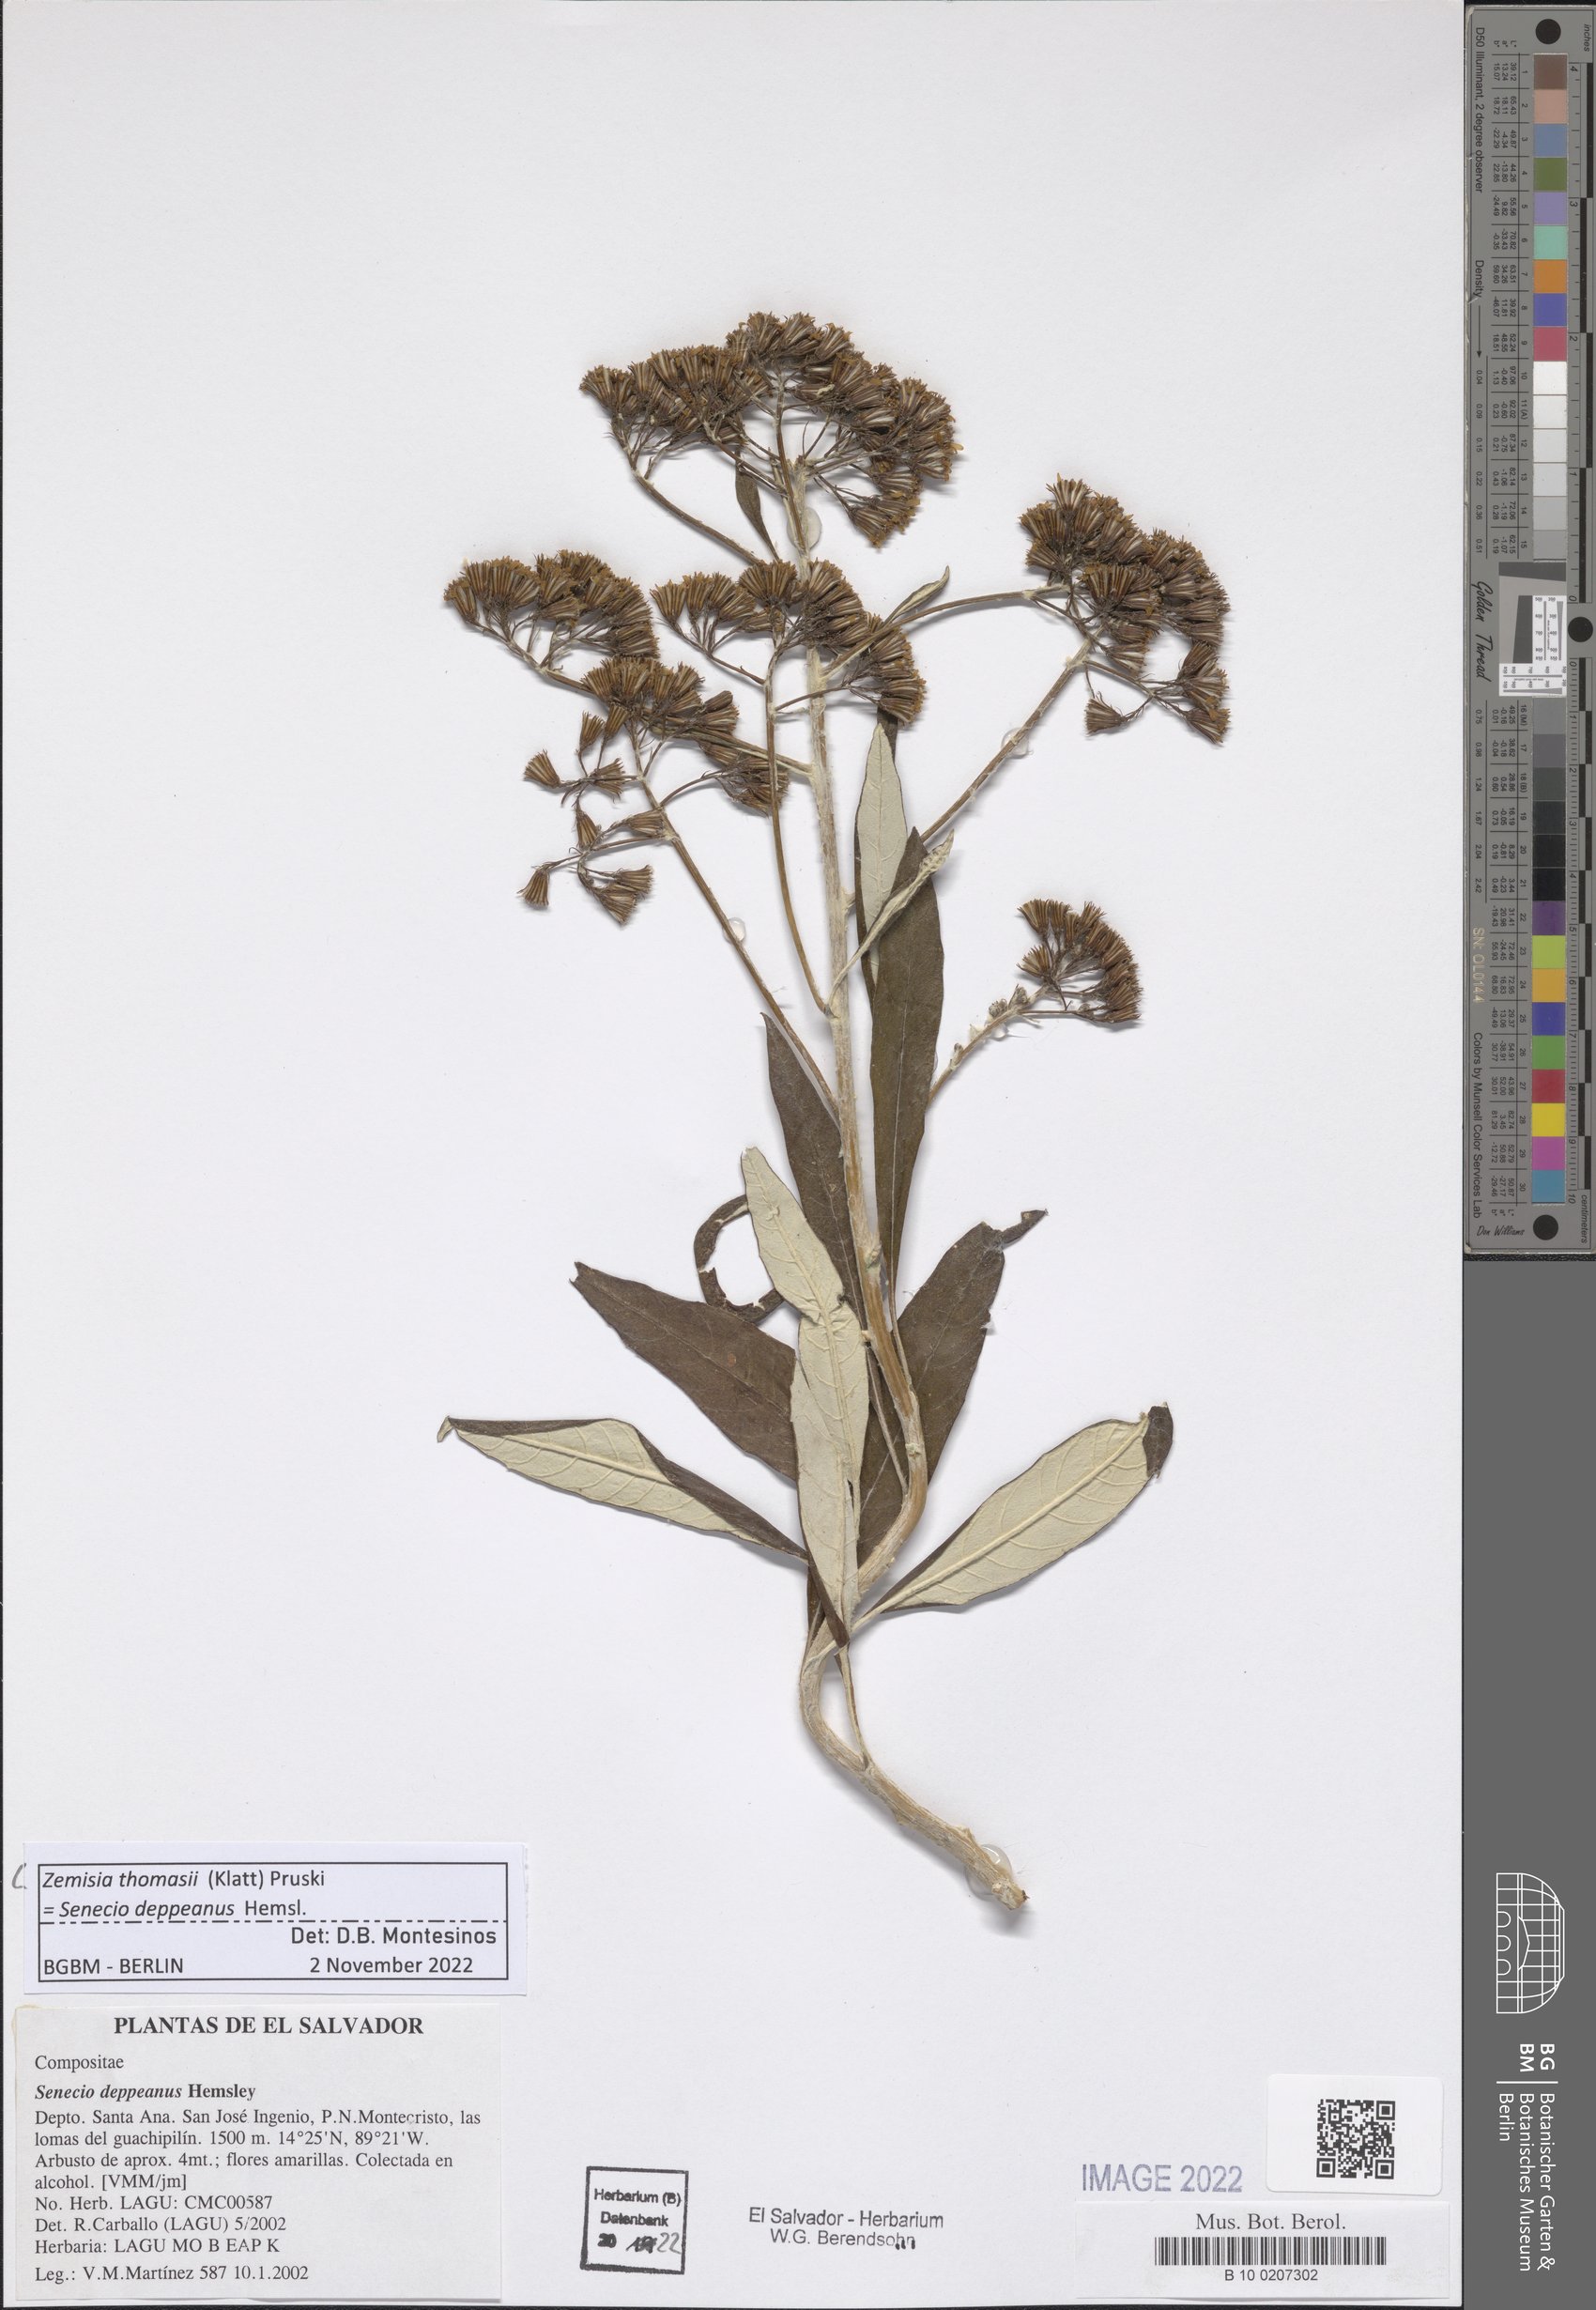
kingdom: Plantae
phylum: Tracheophyta
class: Magnoliopsida
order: Asterales
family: Asteraceae
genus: Zemisia
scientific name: Zemisia thomasii
